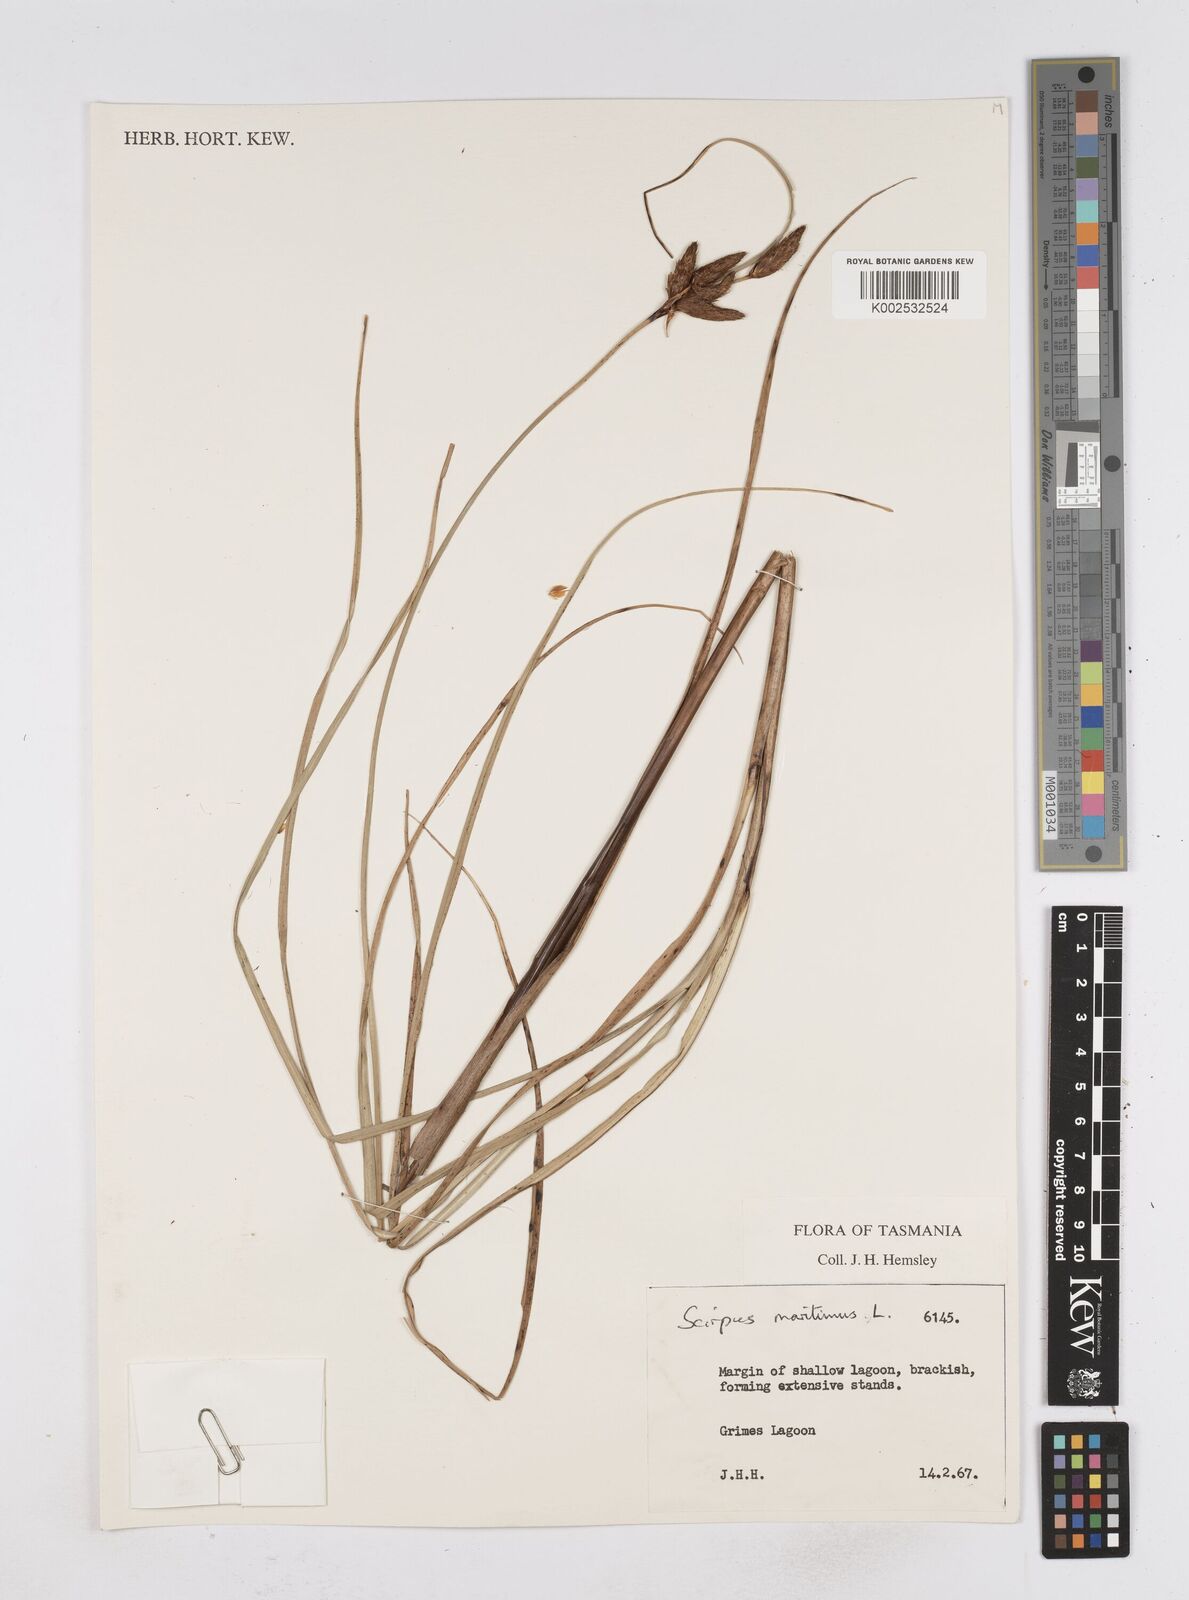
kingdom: Plantae
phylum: Tracheophyta
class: Liliopsida
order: Poales
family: Cyperaceae
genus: Bolboschoenus
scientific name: Bolboschoenus maritimus
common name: Sea club-rush
